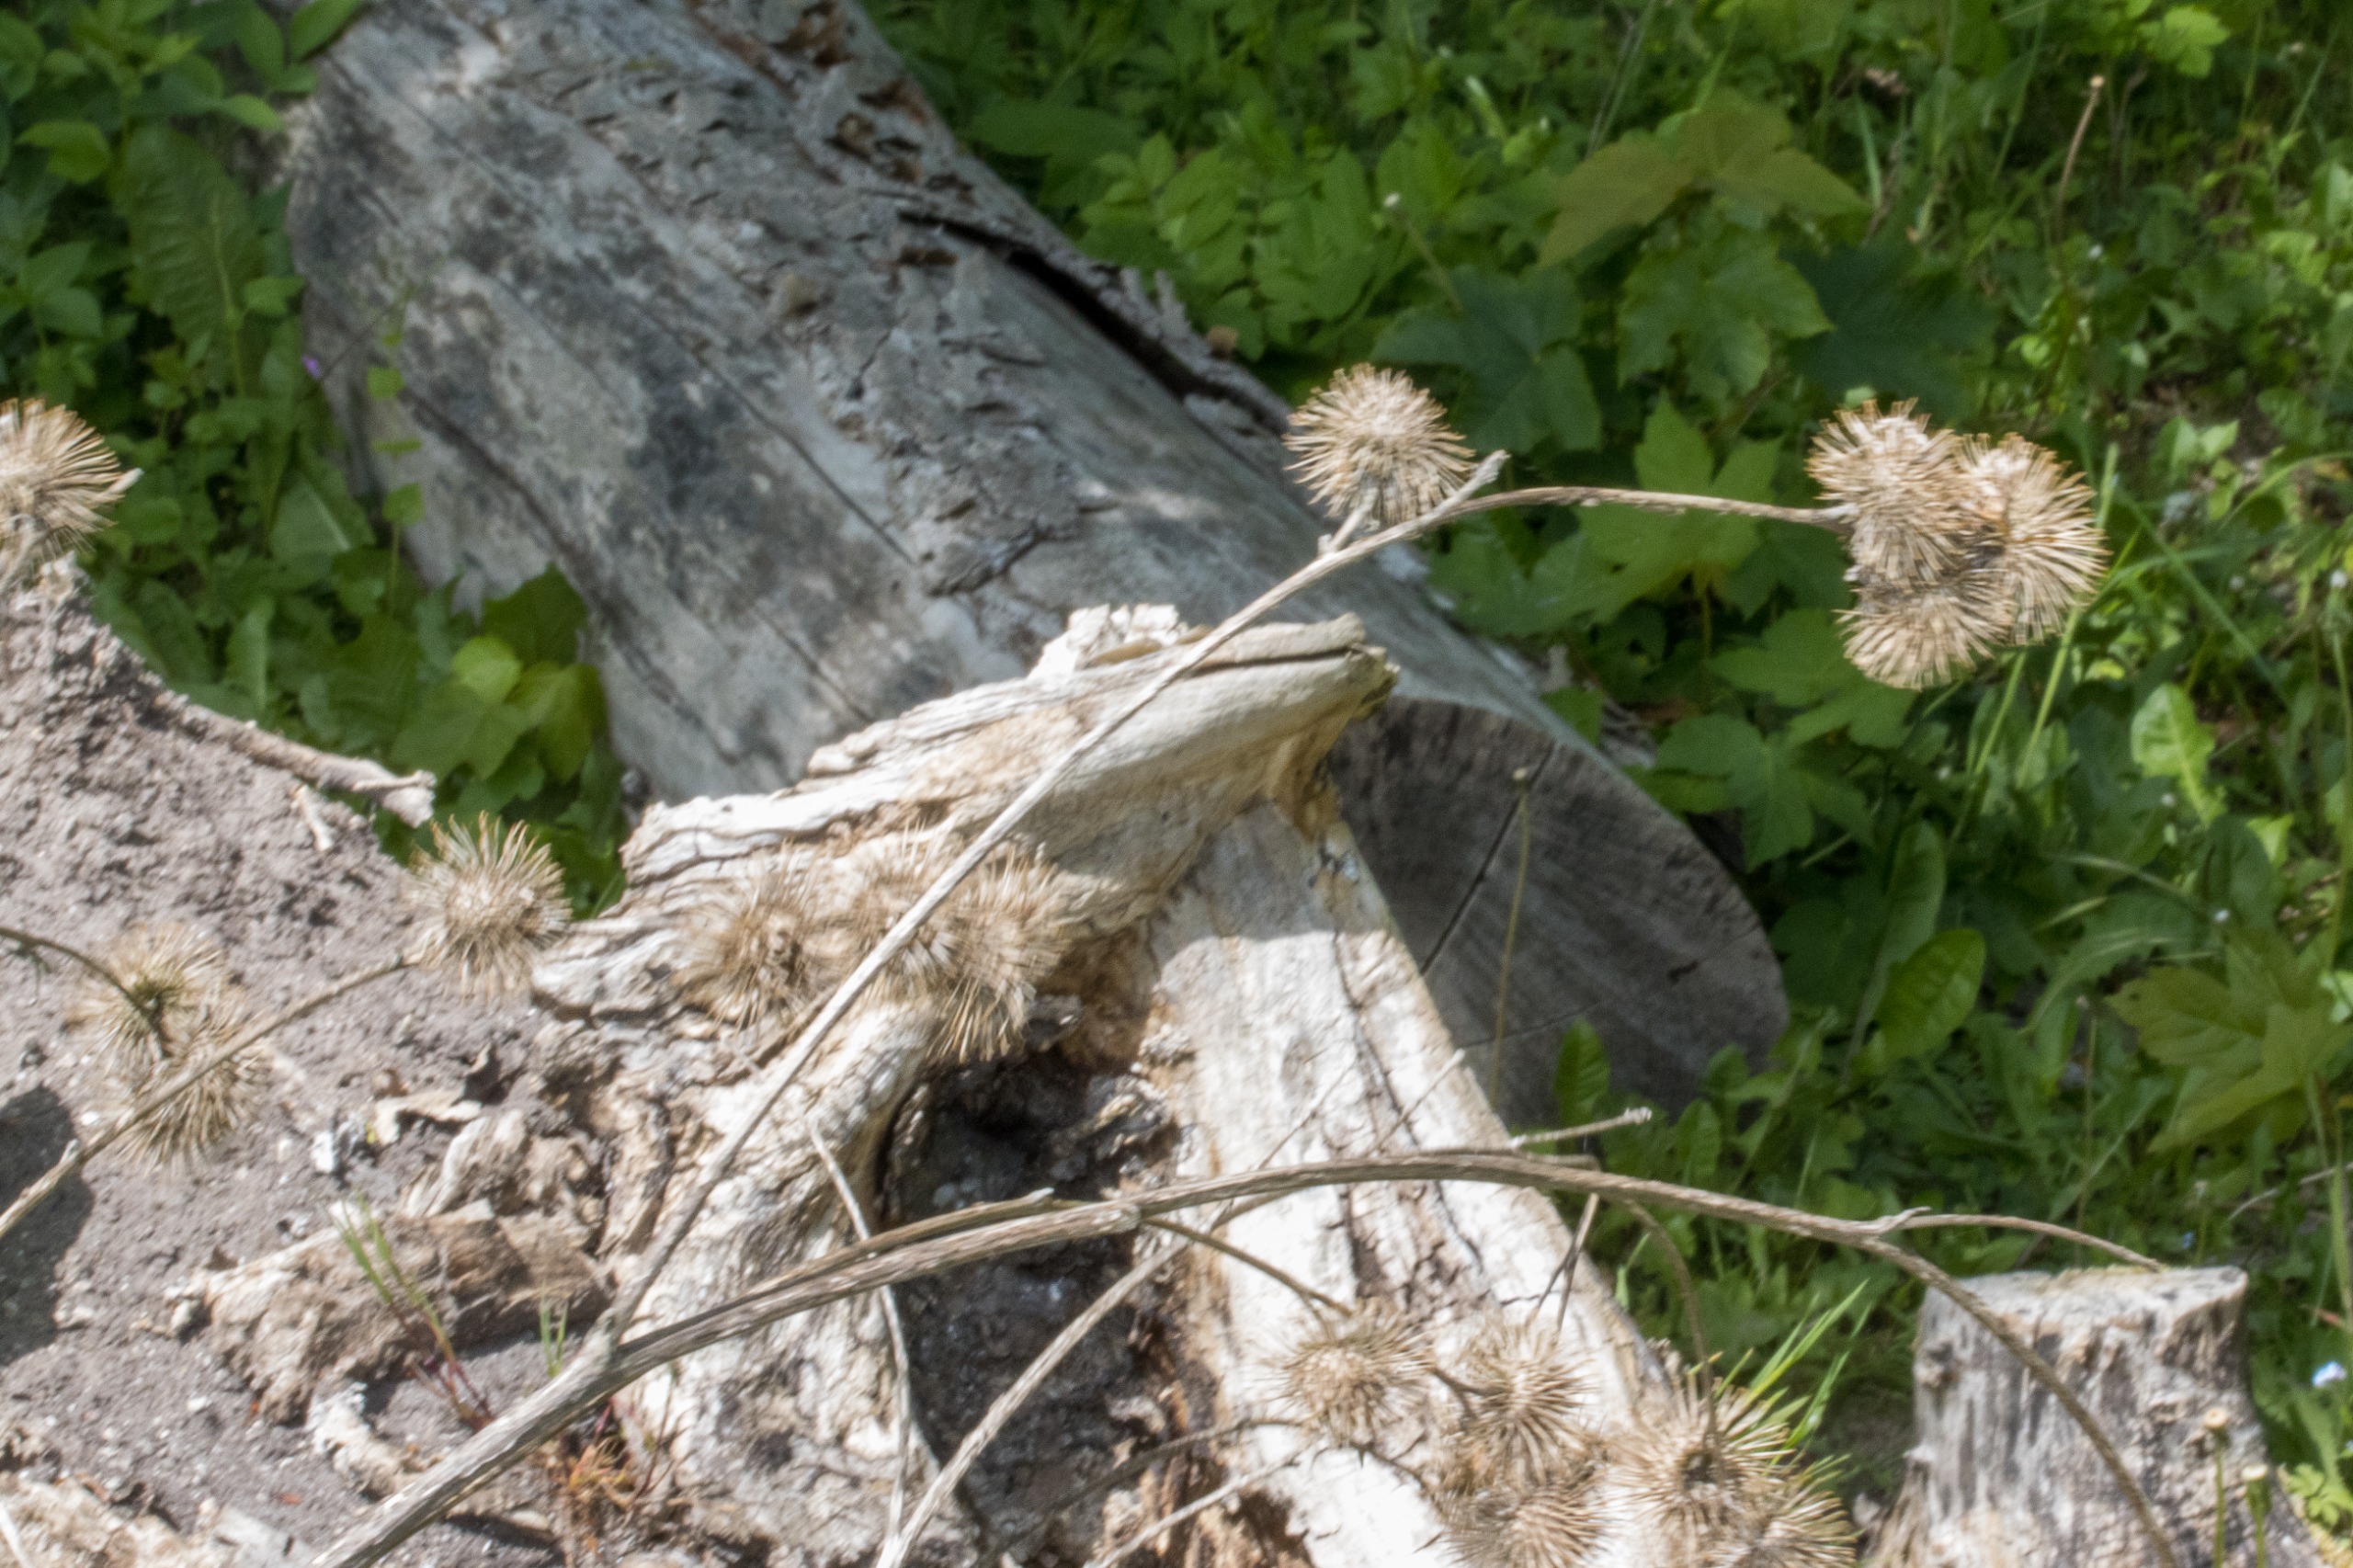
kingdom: Plantae
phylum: Tracheophyta
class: Magnoliopsida
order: Asterales
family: Asteraceae
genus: Arctium
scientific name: Arctium nemorosum
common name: Skov-burre
